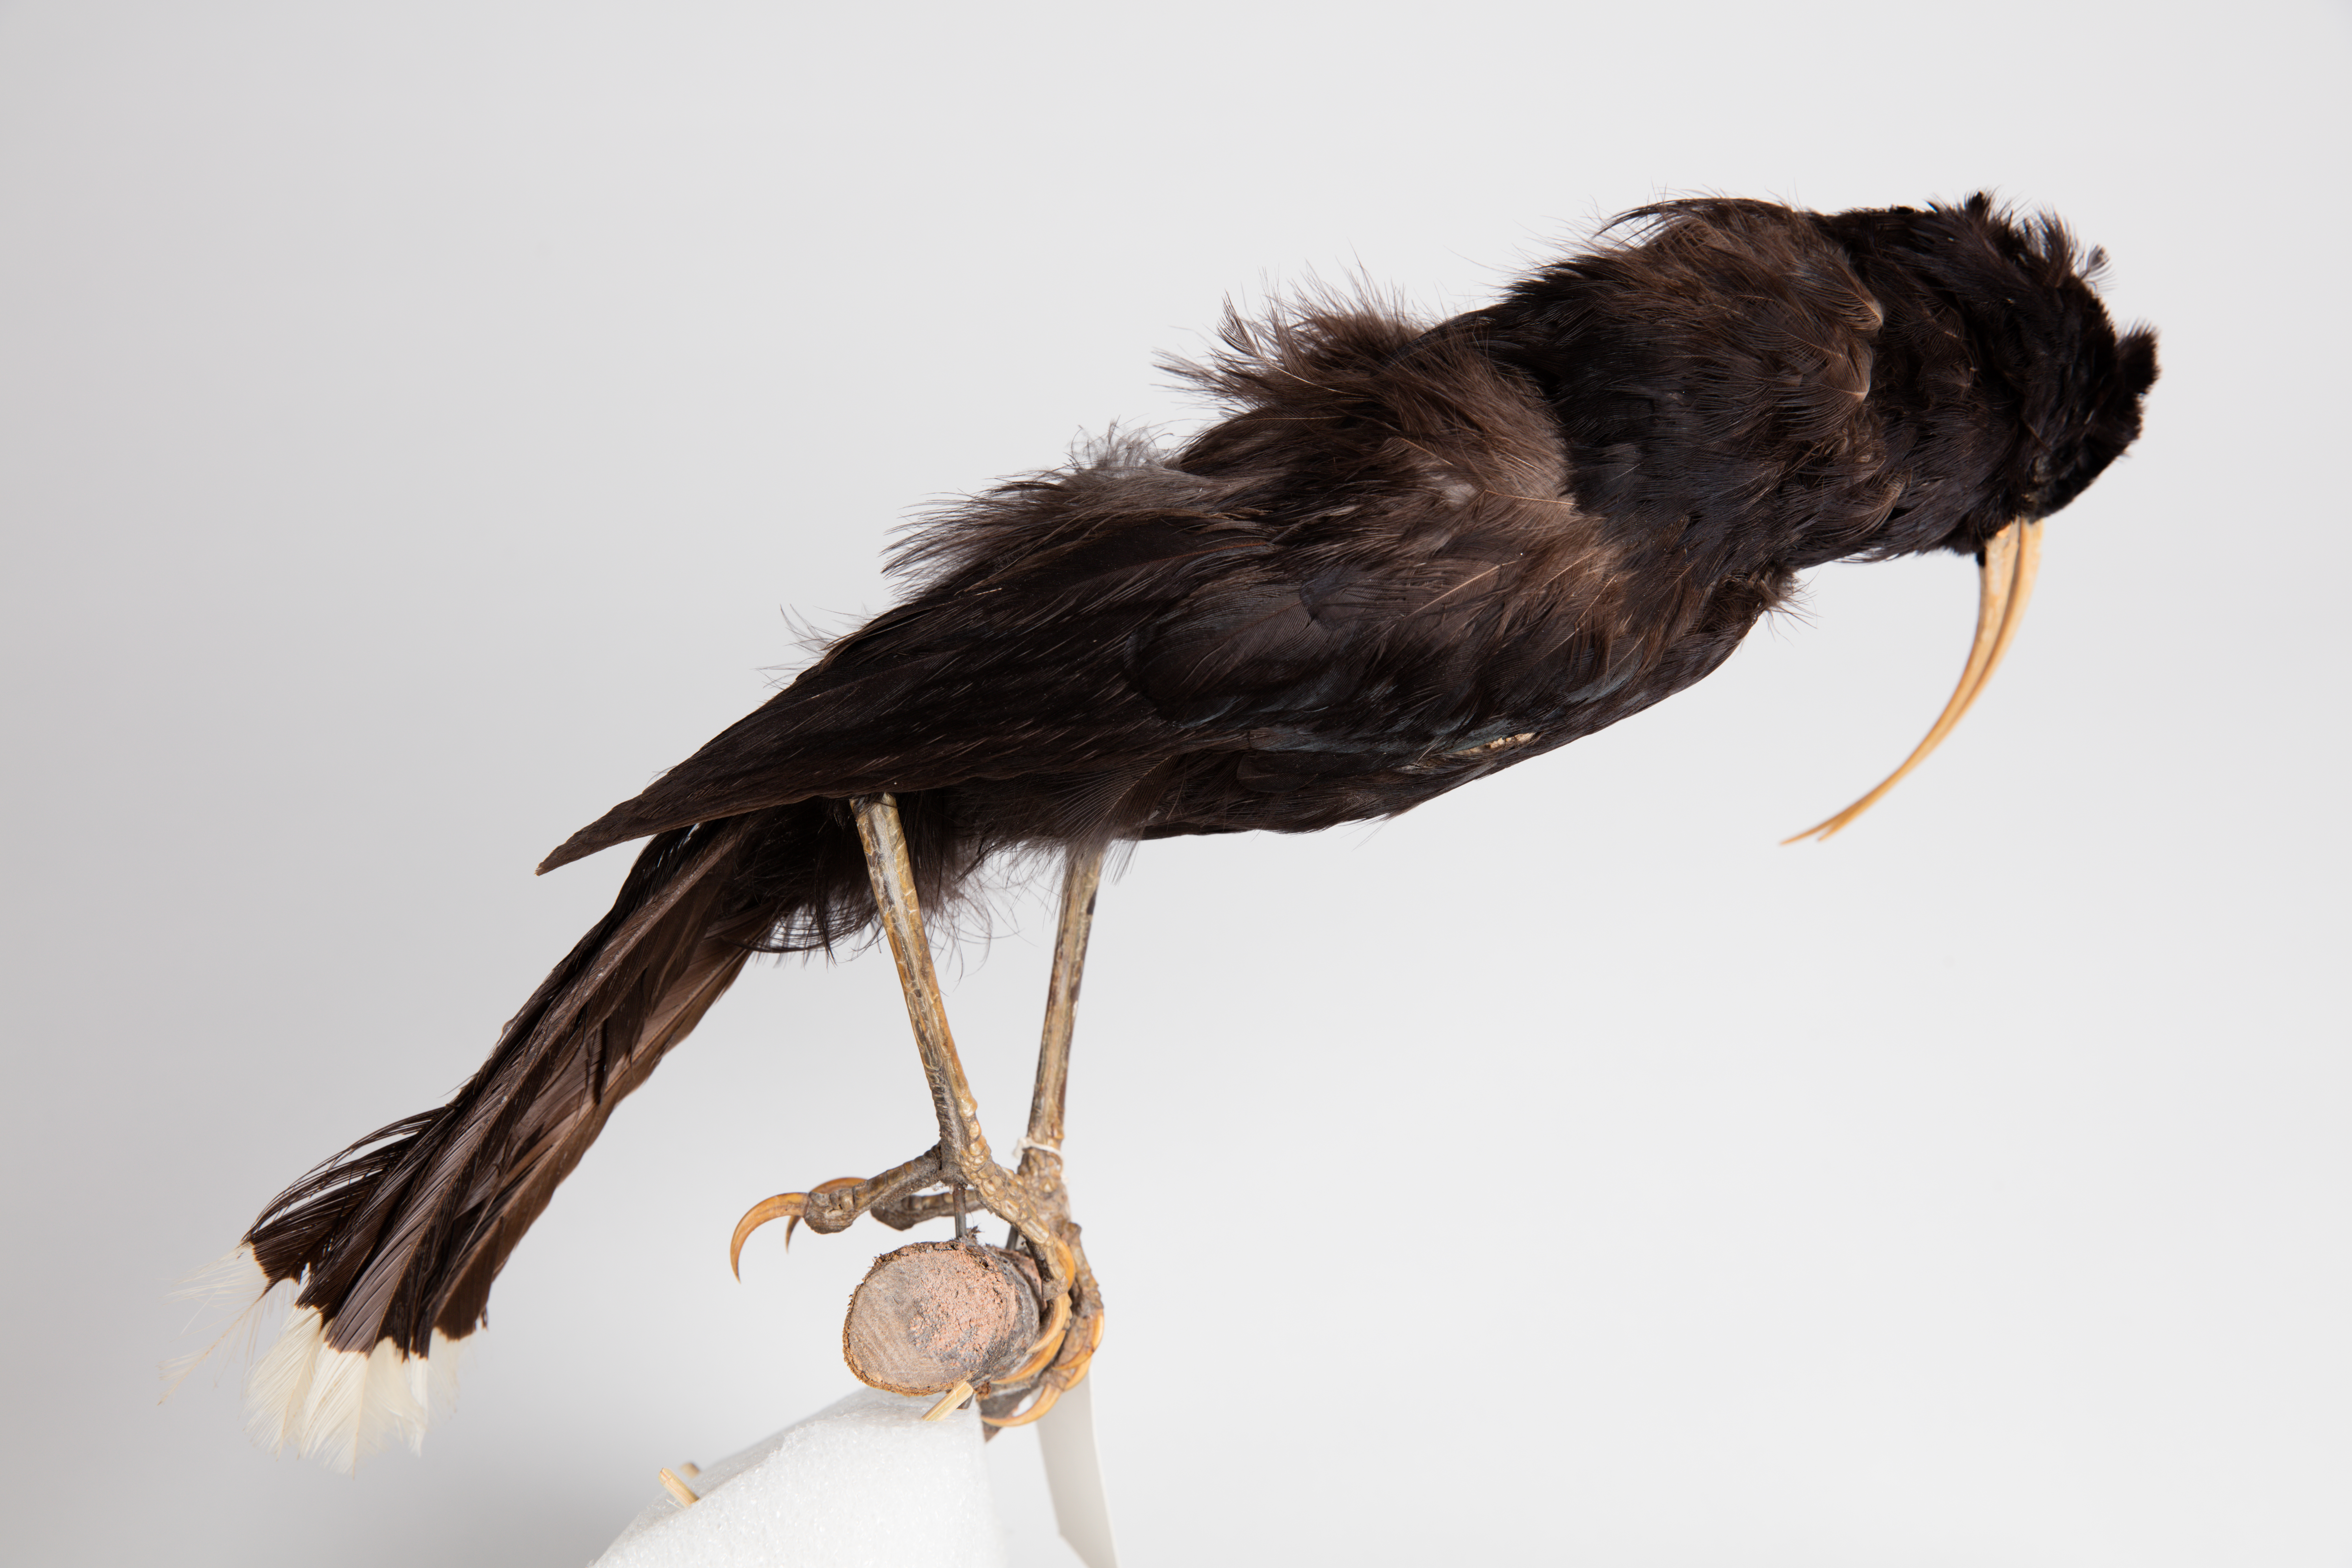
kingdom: Animalia
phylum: Chordata
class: Aves
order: Passeriformes
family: Callaeatidae
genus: Heteralocha
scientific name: Heteralocha acutirostris
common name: Huia
